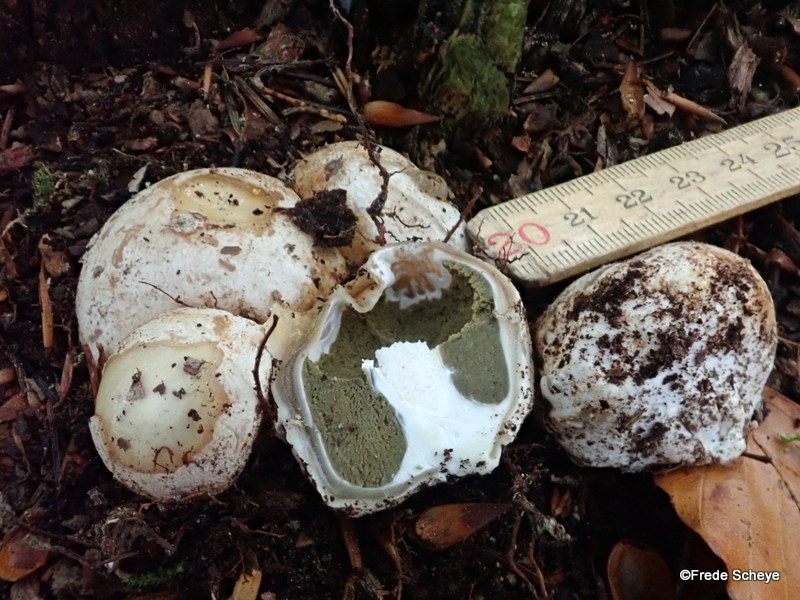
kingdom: Fungi
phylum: Basidiomycota
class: Agaricomycetes
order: Phallales
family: Phallaceae
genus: Phallus
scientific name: Phallus impudicus
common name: almindelig stinksvamp
